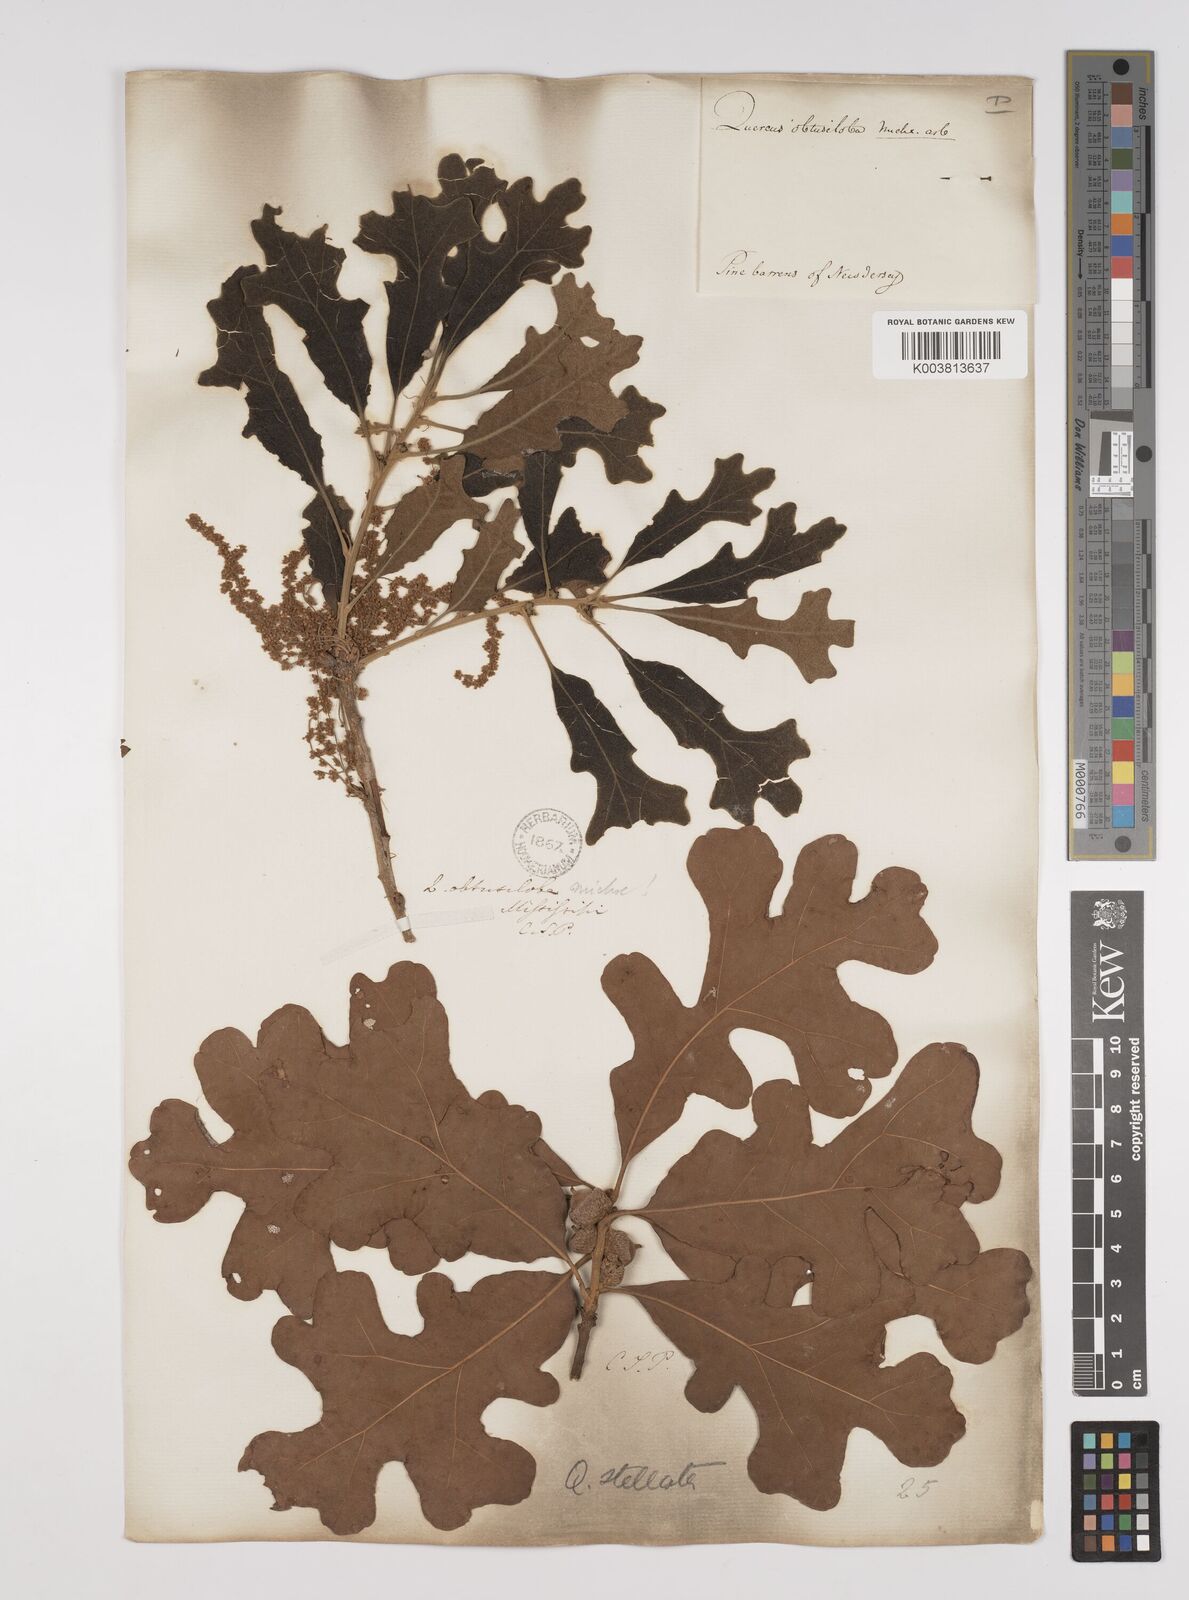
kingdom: Plantae
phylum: Tracheophyta
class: Magnoliopsida
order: Fagales
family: Fagaceae
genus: Quercus
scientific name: Quercus stellata
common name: Post oak
